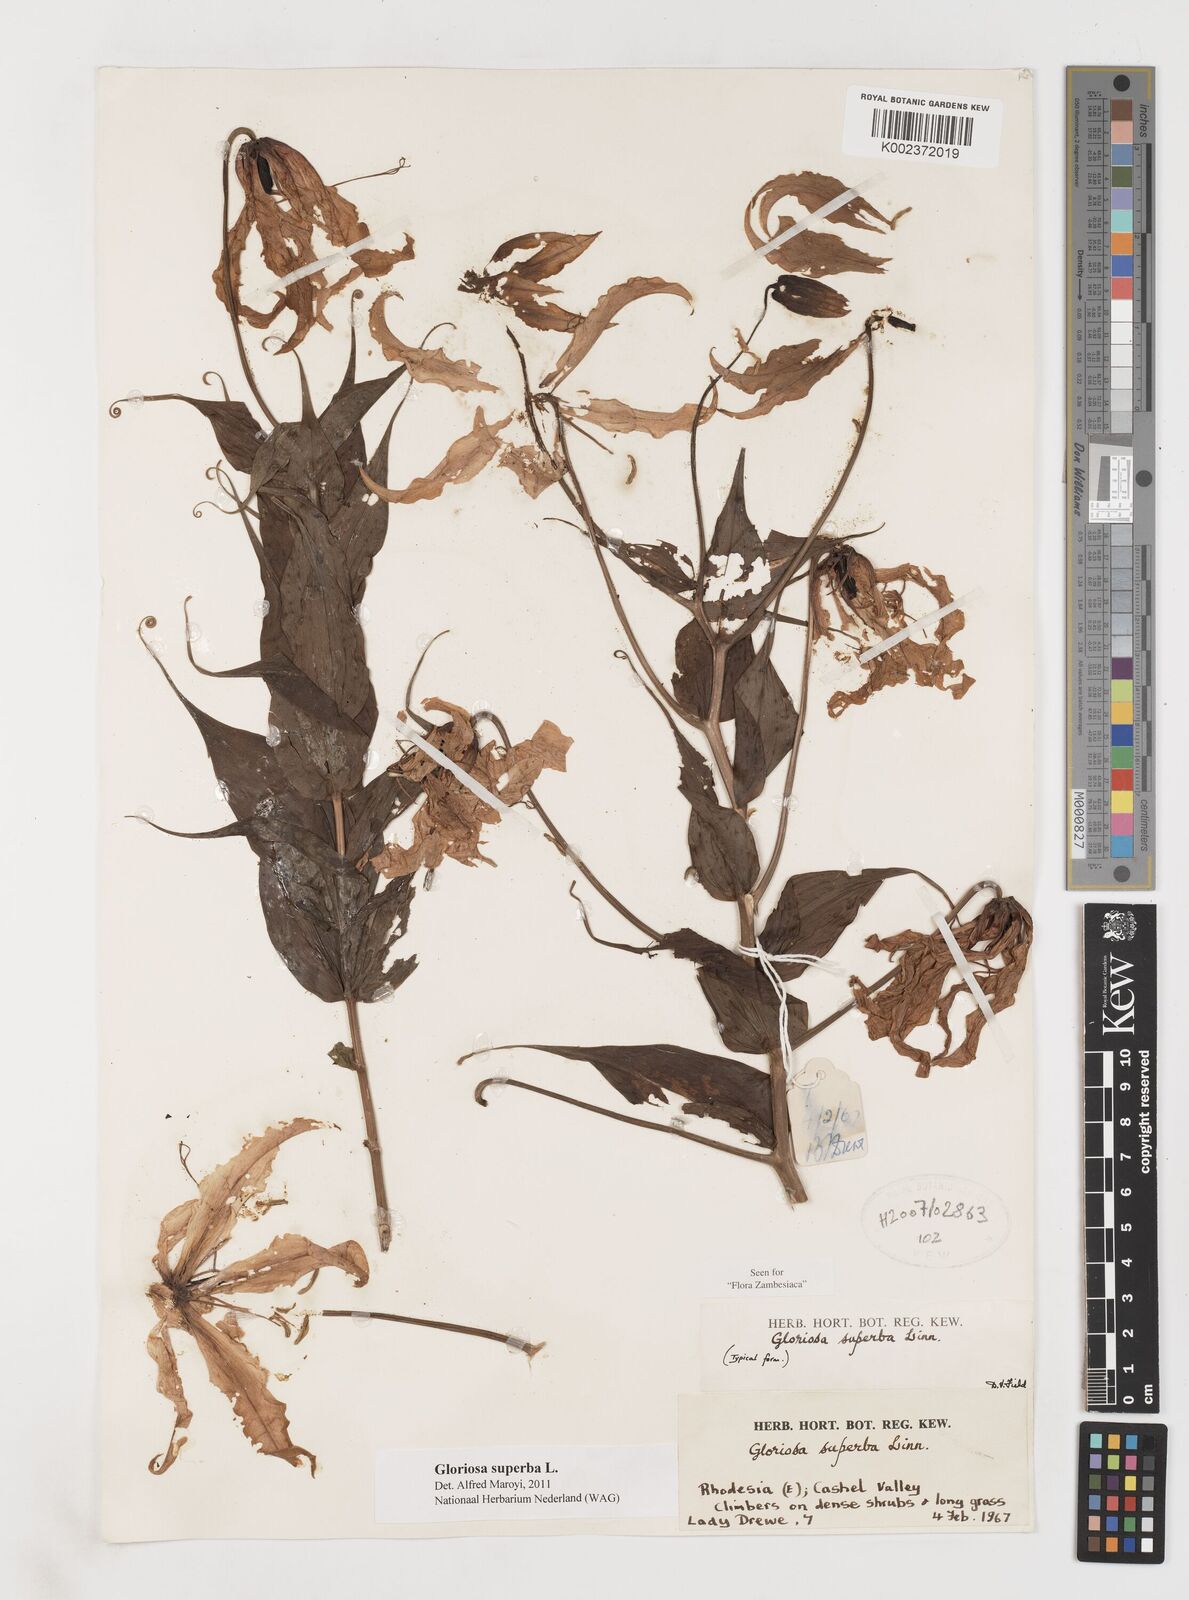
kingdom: Plantae
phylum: Tracheophyta
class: Liliopsida
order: Liliales
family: Colchicaceae
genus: Gloriosa
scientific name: Gloriosa superba
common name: Flame lily
